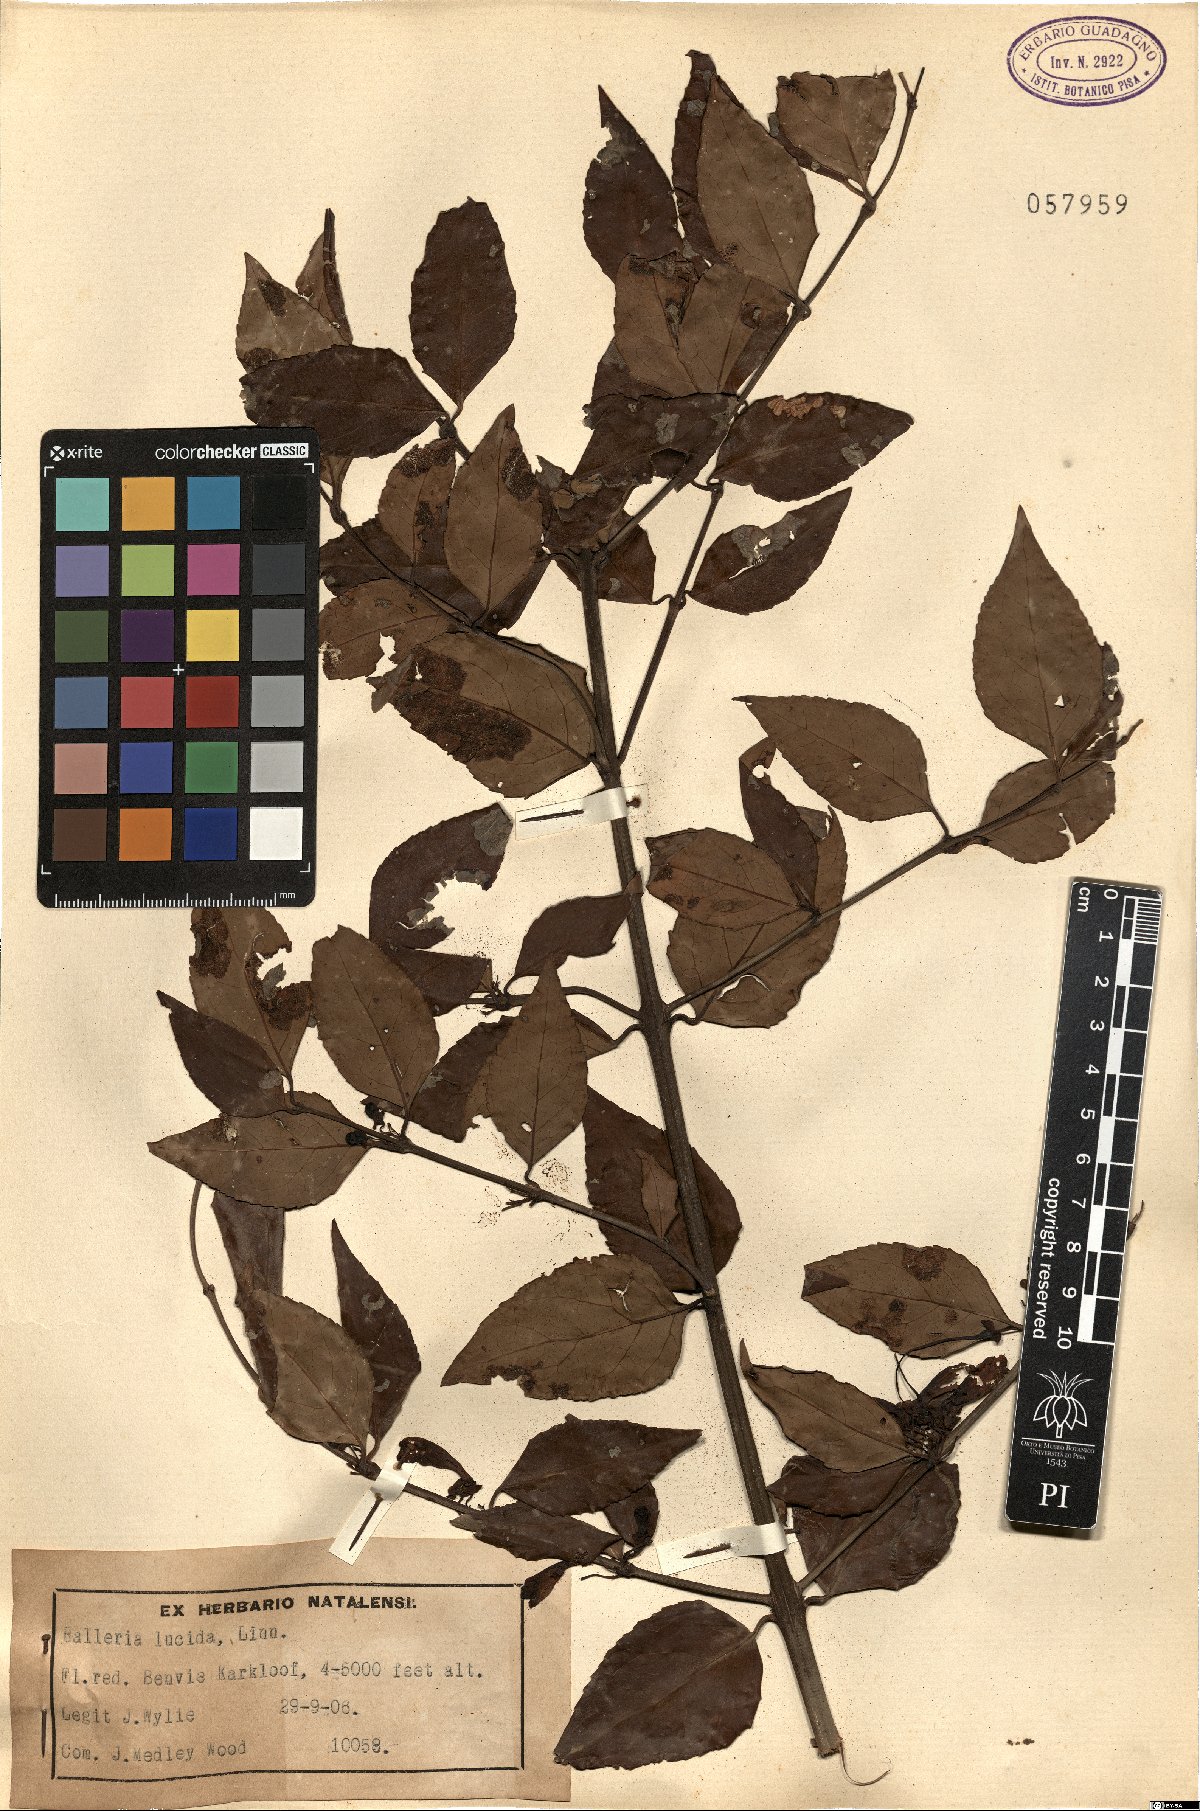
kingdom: Plantae
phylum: Tracheophyta
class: Magnoliopsida
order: Lamiales
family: Stilbaceae
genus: Halleria
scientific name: Halleria lucida
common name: Tree fuschia
